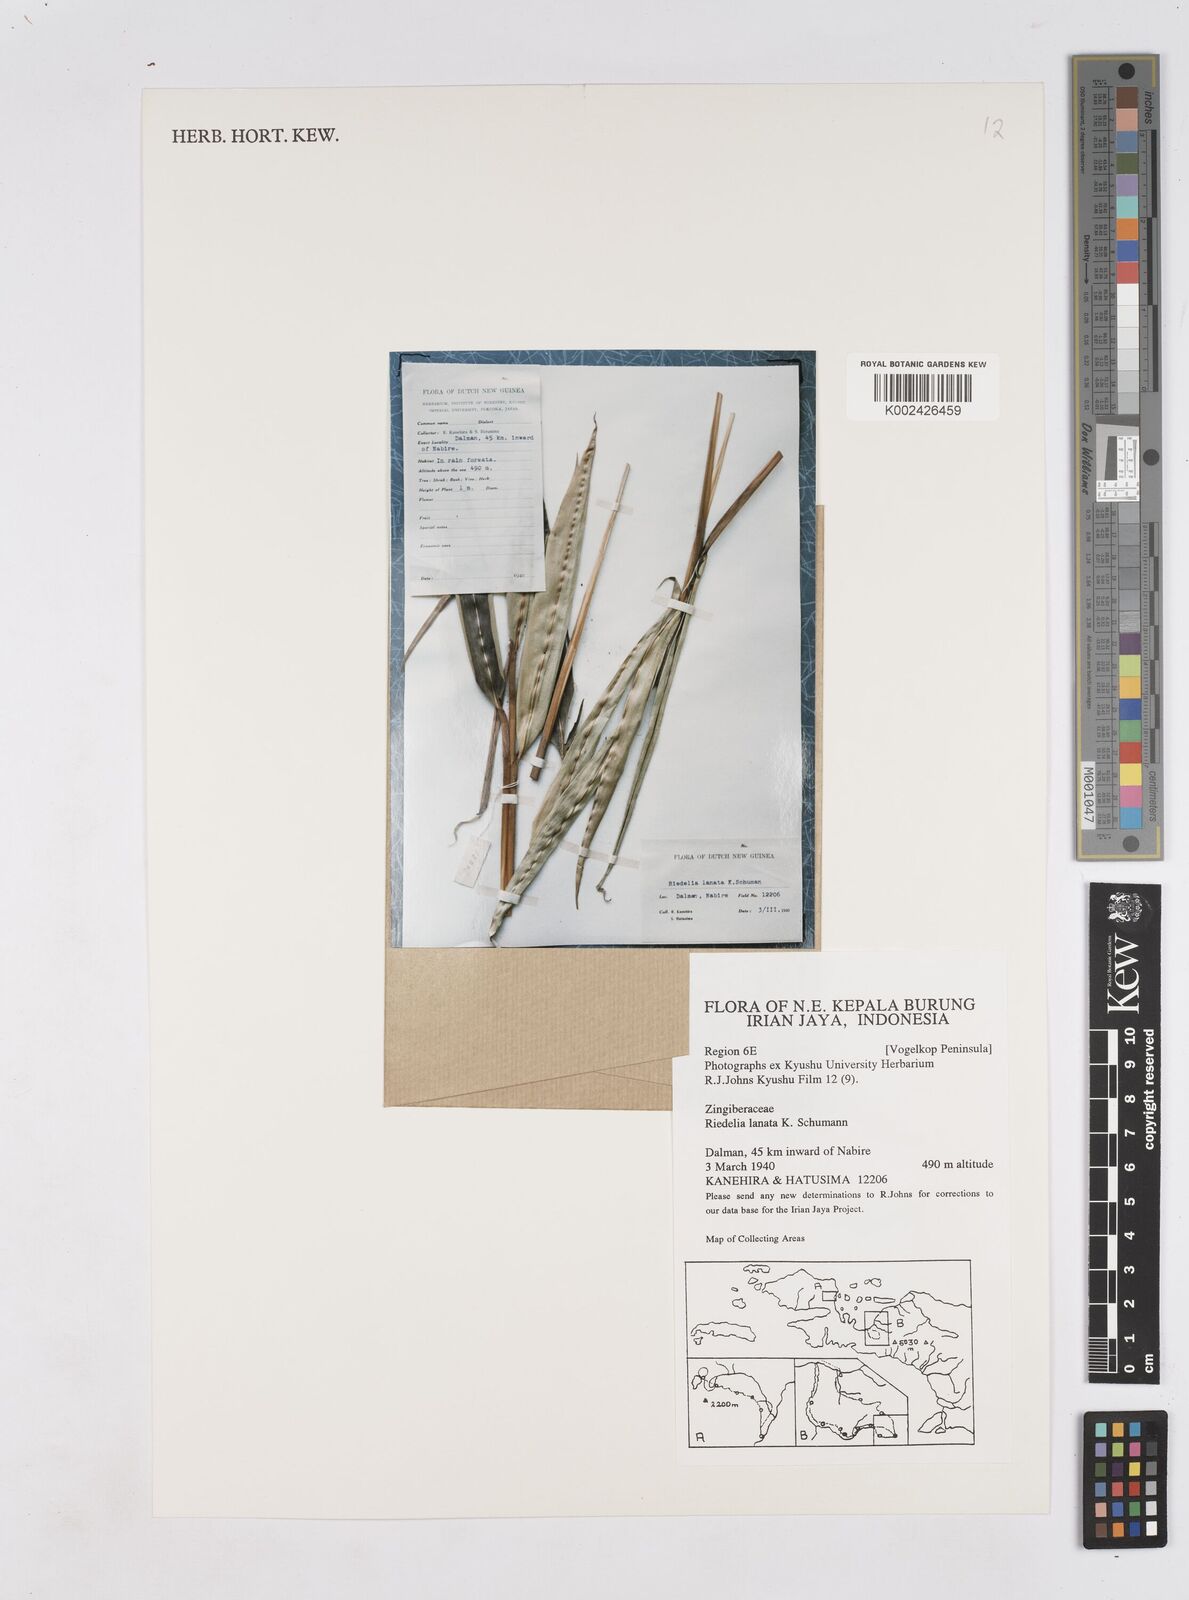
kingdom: Plantae
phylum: Tracheophyta
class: Liliopsida
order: Zingiberales
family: Zingiberaceae
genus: Riedelia
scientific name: Riedelia lanata
